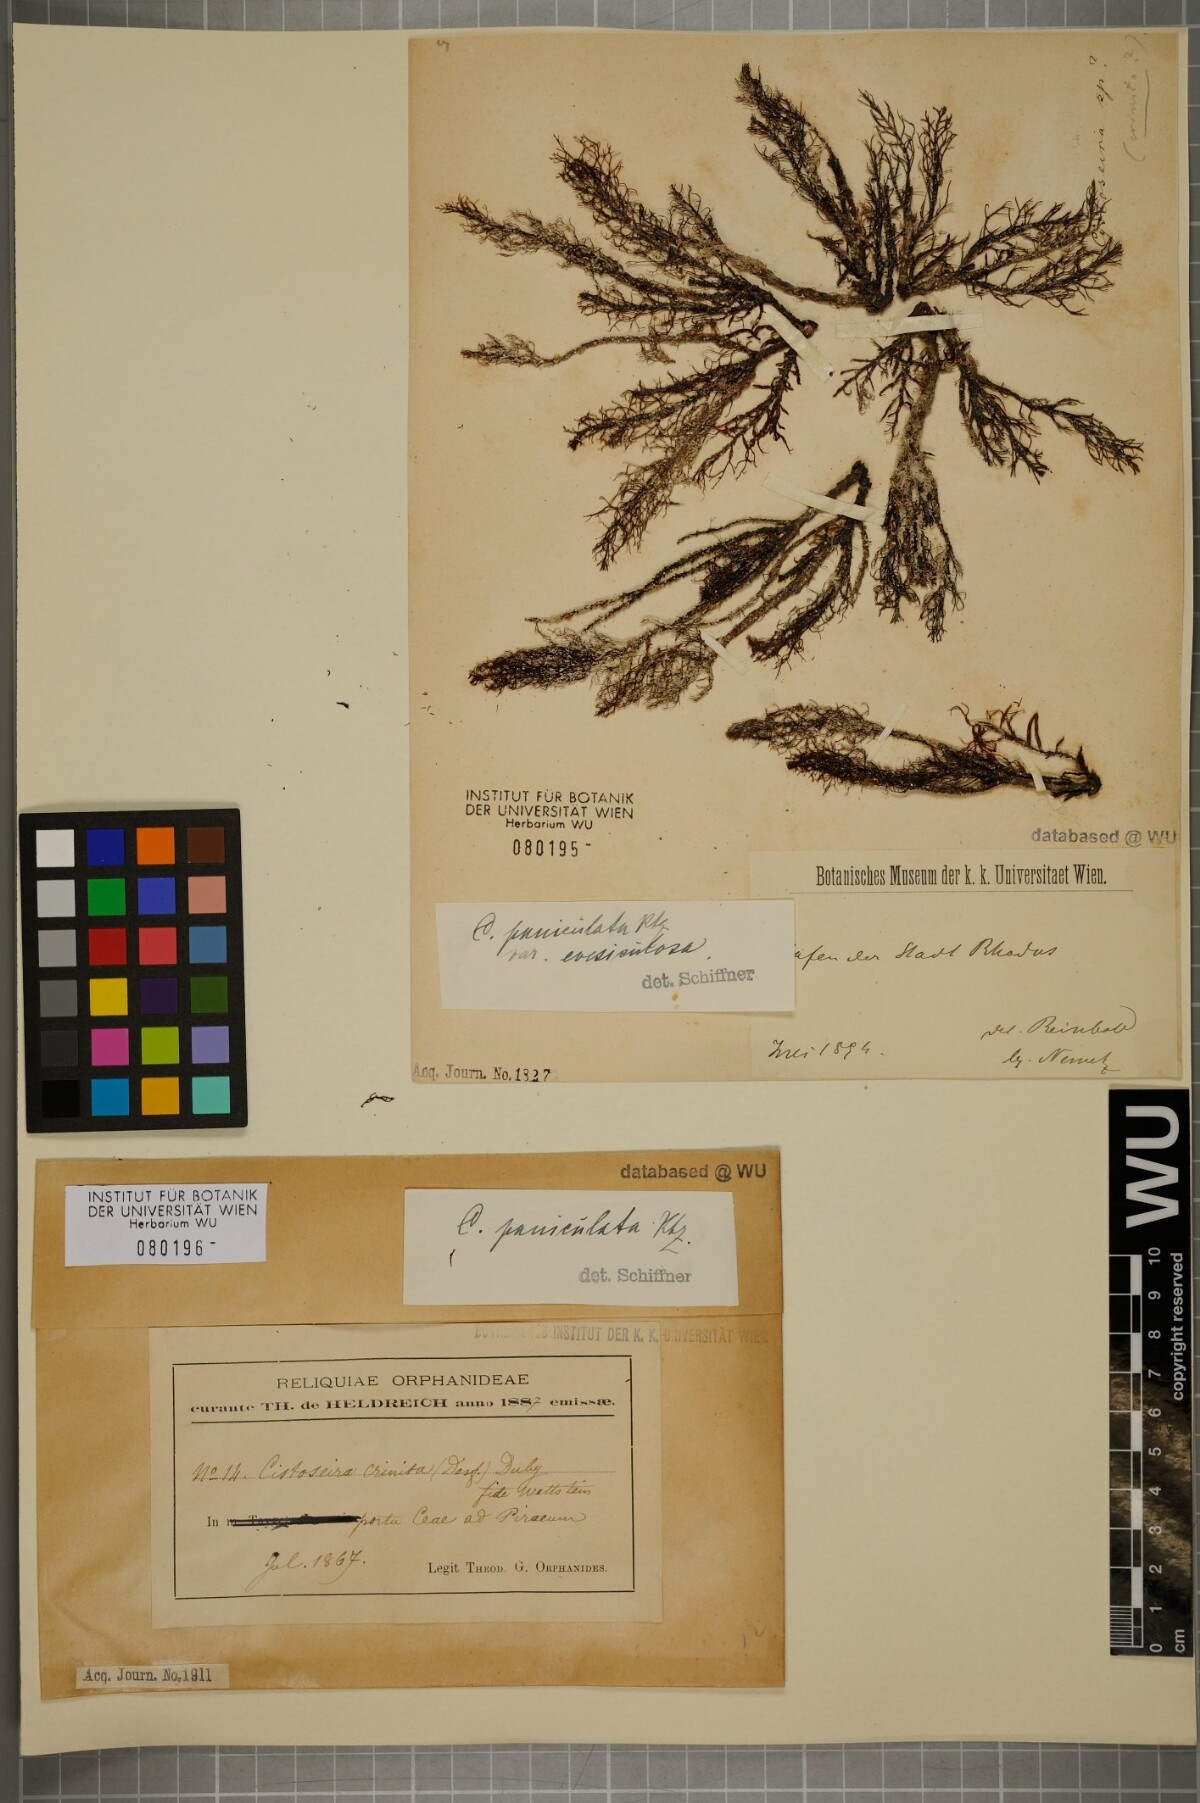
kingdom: Chromista
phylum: Ochrophyta
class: Phaeophyceae
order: Fucales
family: Sargassaceae
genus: Cystoseira
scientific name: Cystoseira
